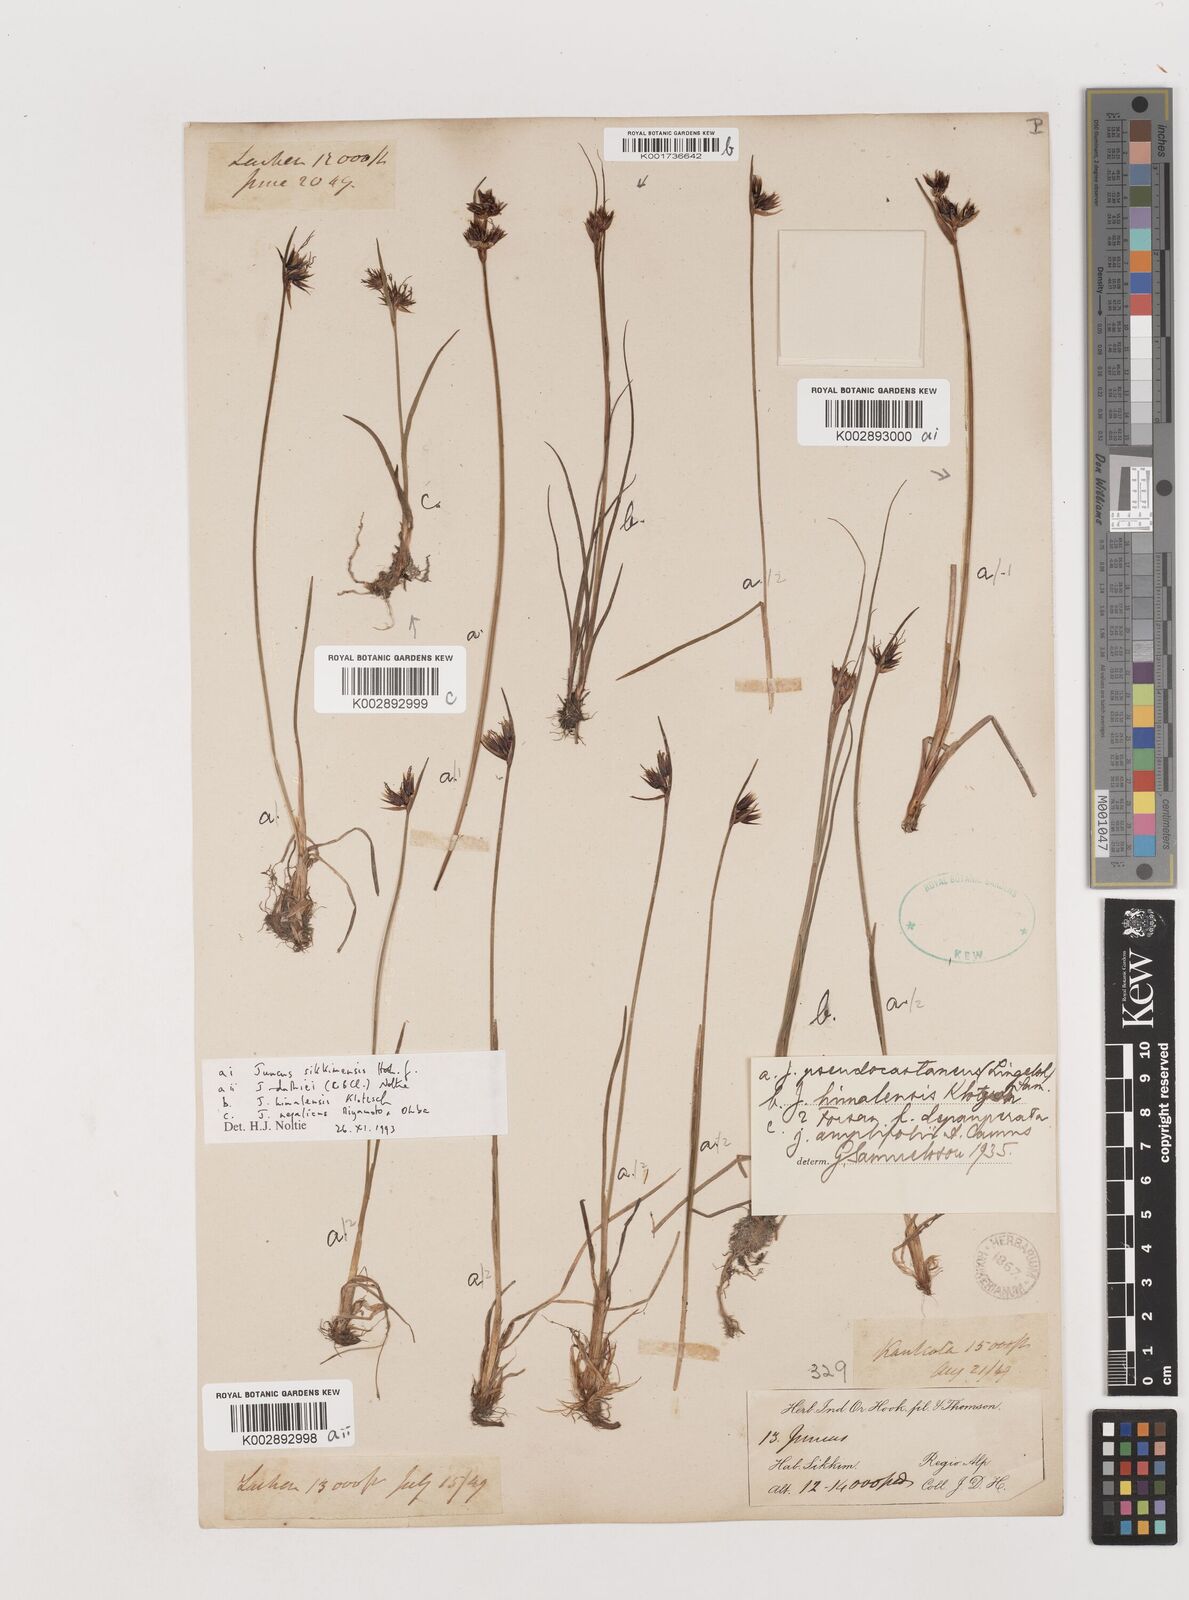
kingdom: Plantae
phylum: Tracheophyta
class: Liliopsida
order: Poales
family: Juncaceae
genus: Juncus
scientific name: Juncus
